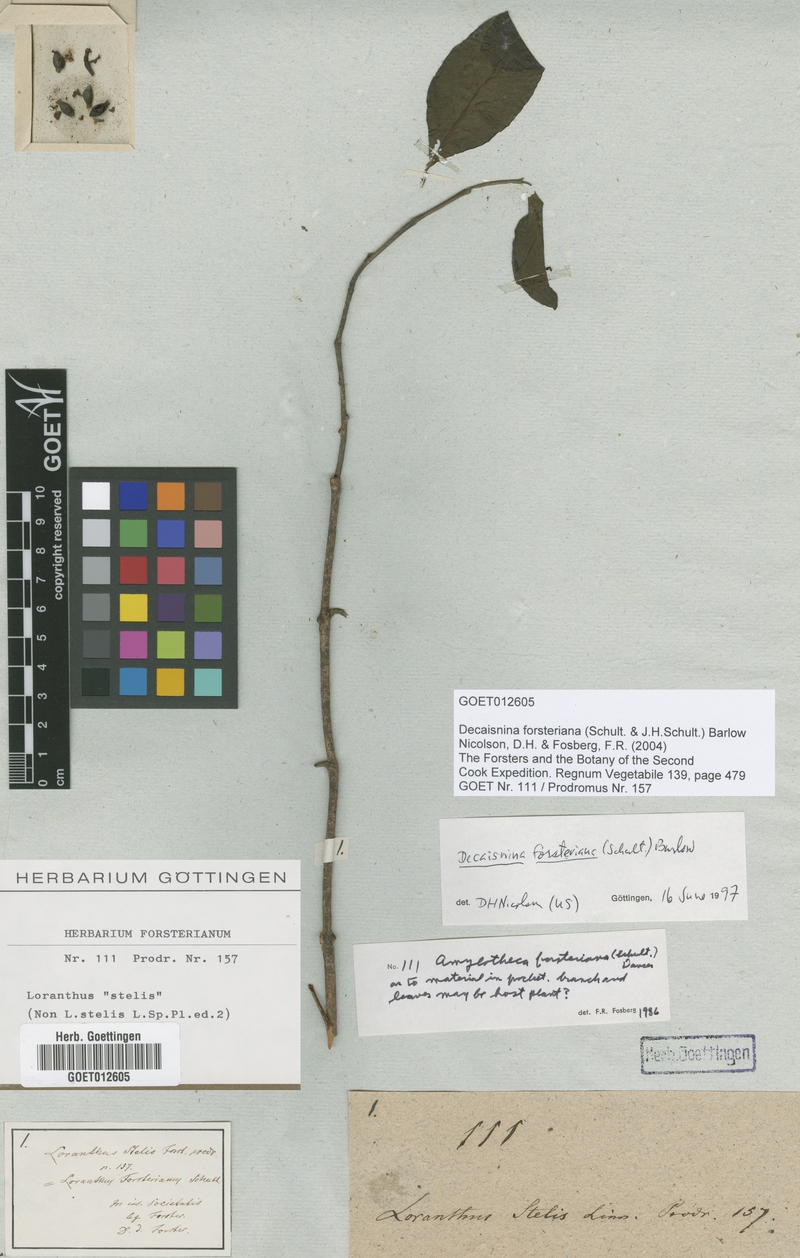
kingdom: Plantae
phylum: Tracheophyta
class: Magnoliopsida
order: Santalales
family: Loranthaceae
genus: Decaisnina
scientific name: Decaisnina forsteriana
